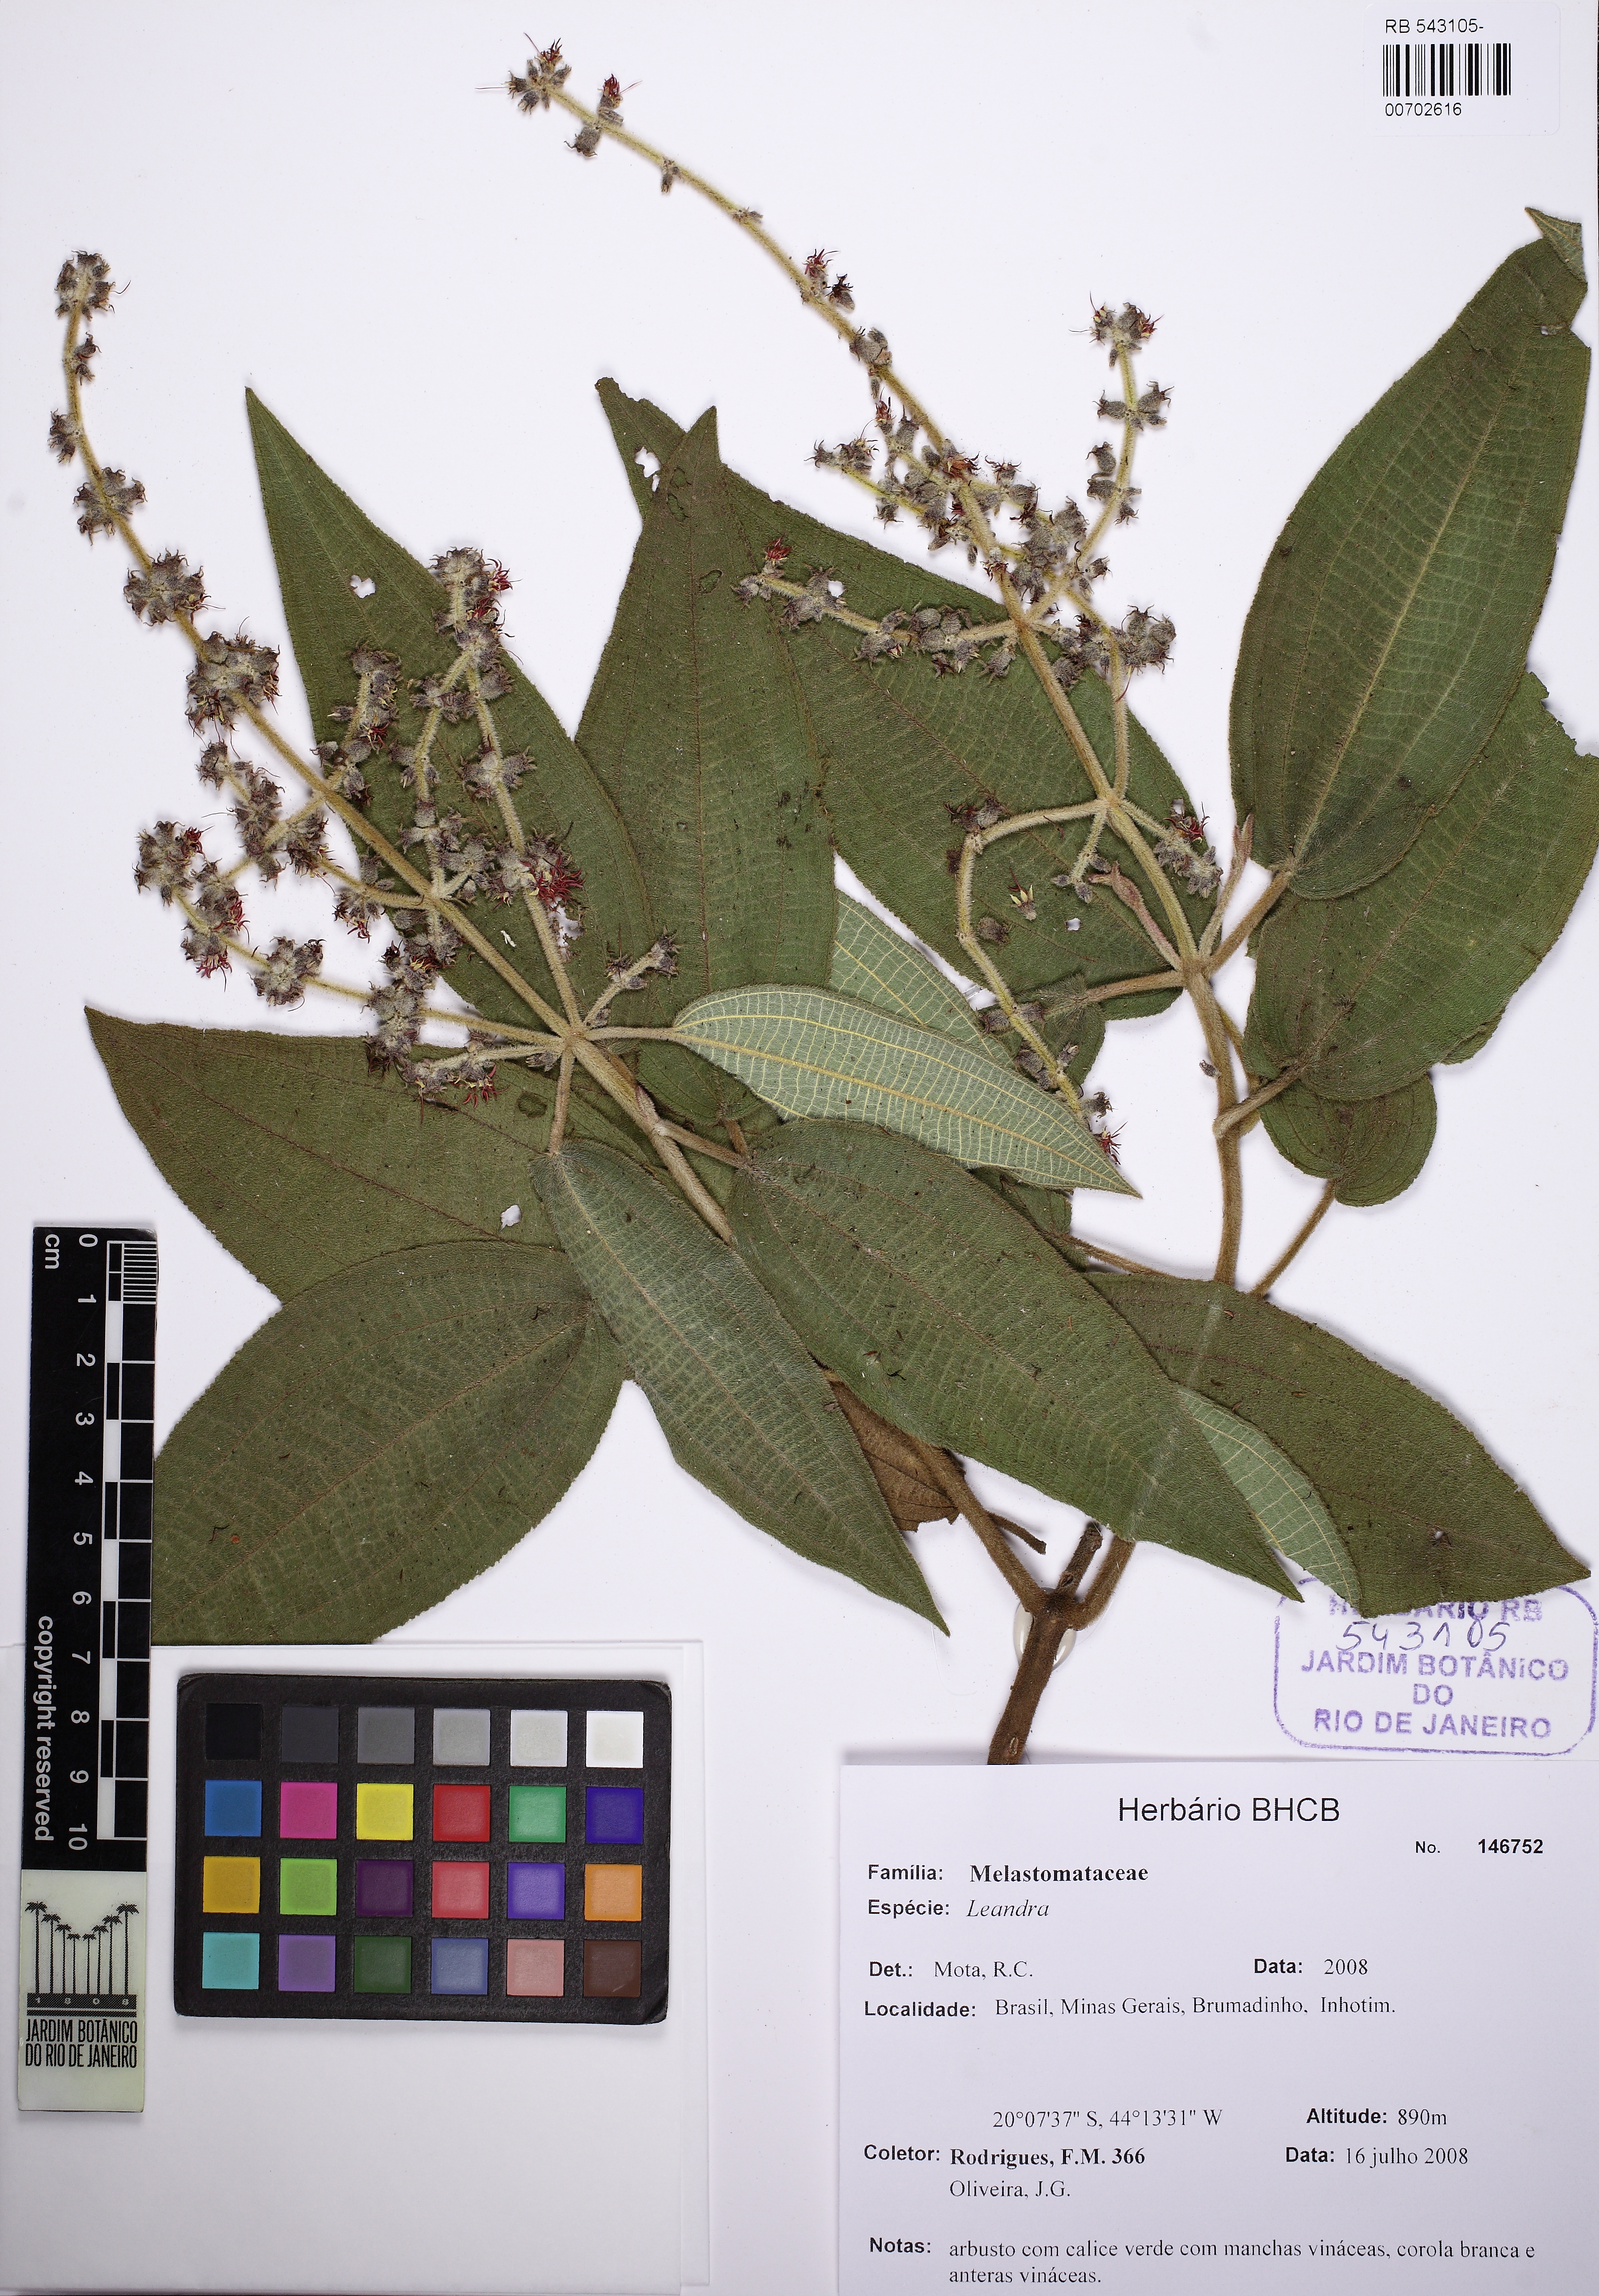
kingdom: Plantae
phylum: Tracheophyta
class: Magnoliopsida
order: Myrtales
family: Melastomataceae
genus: Miconia
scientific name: Miconia
